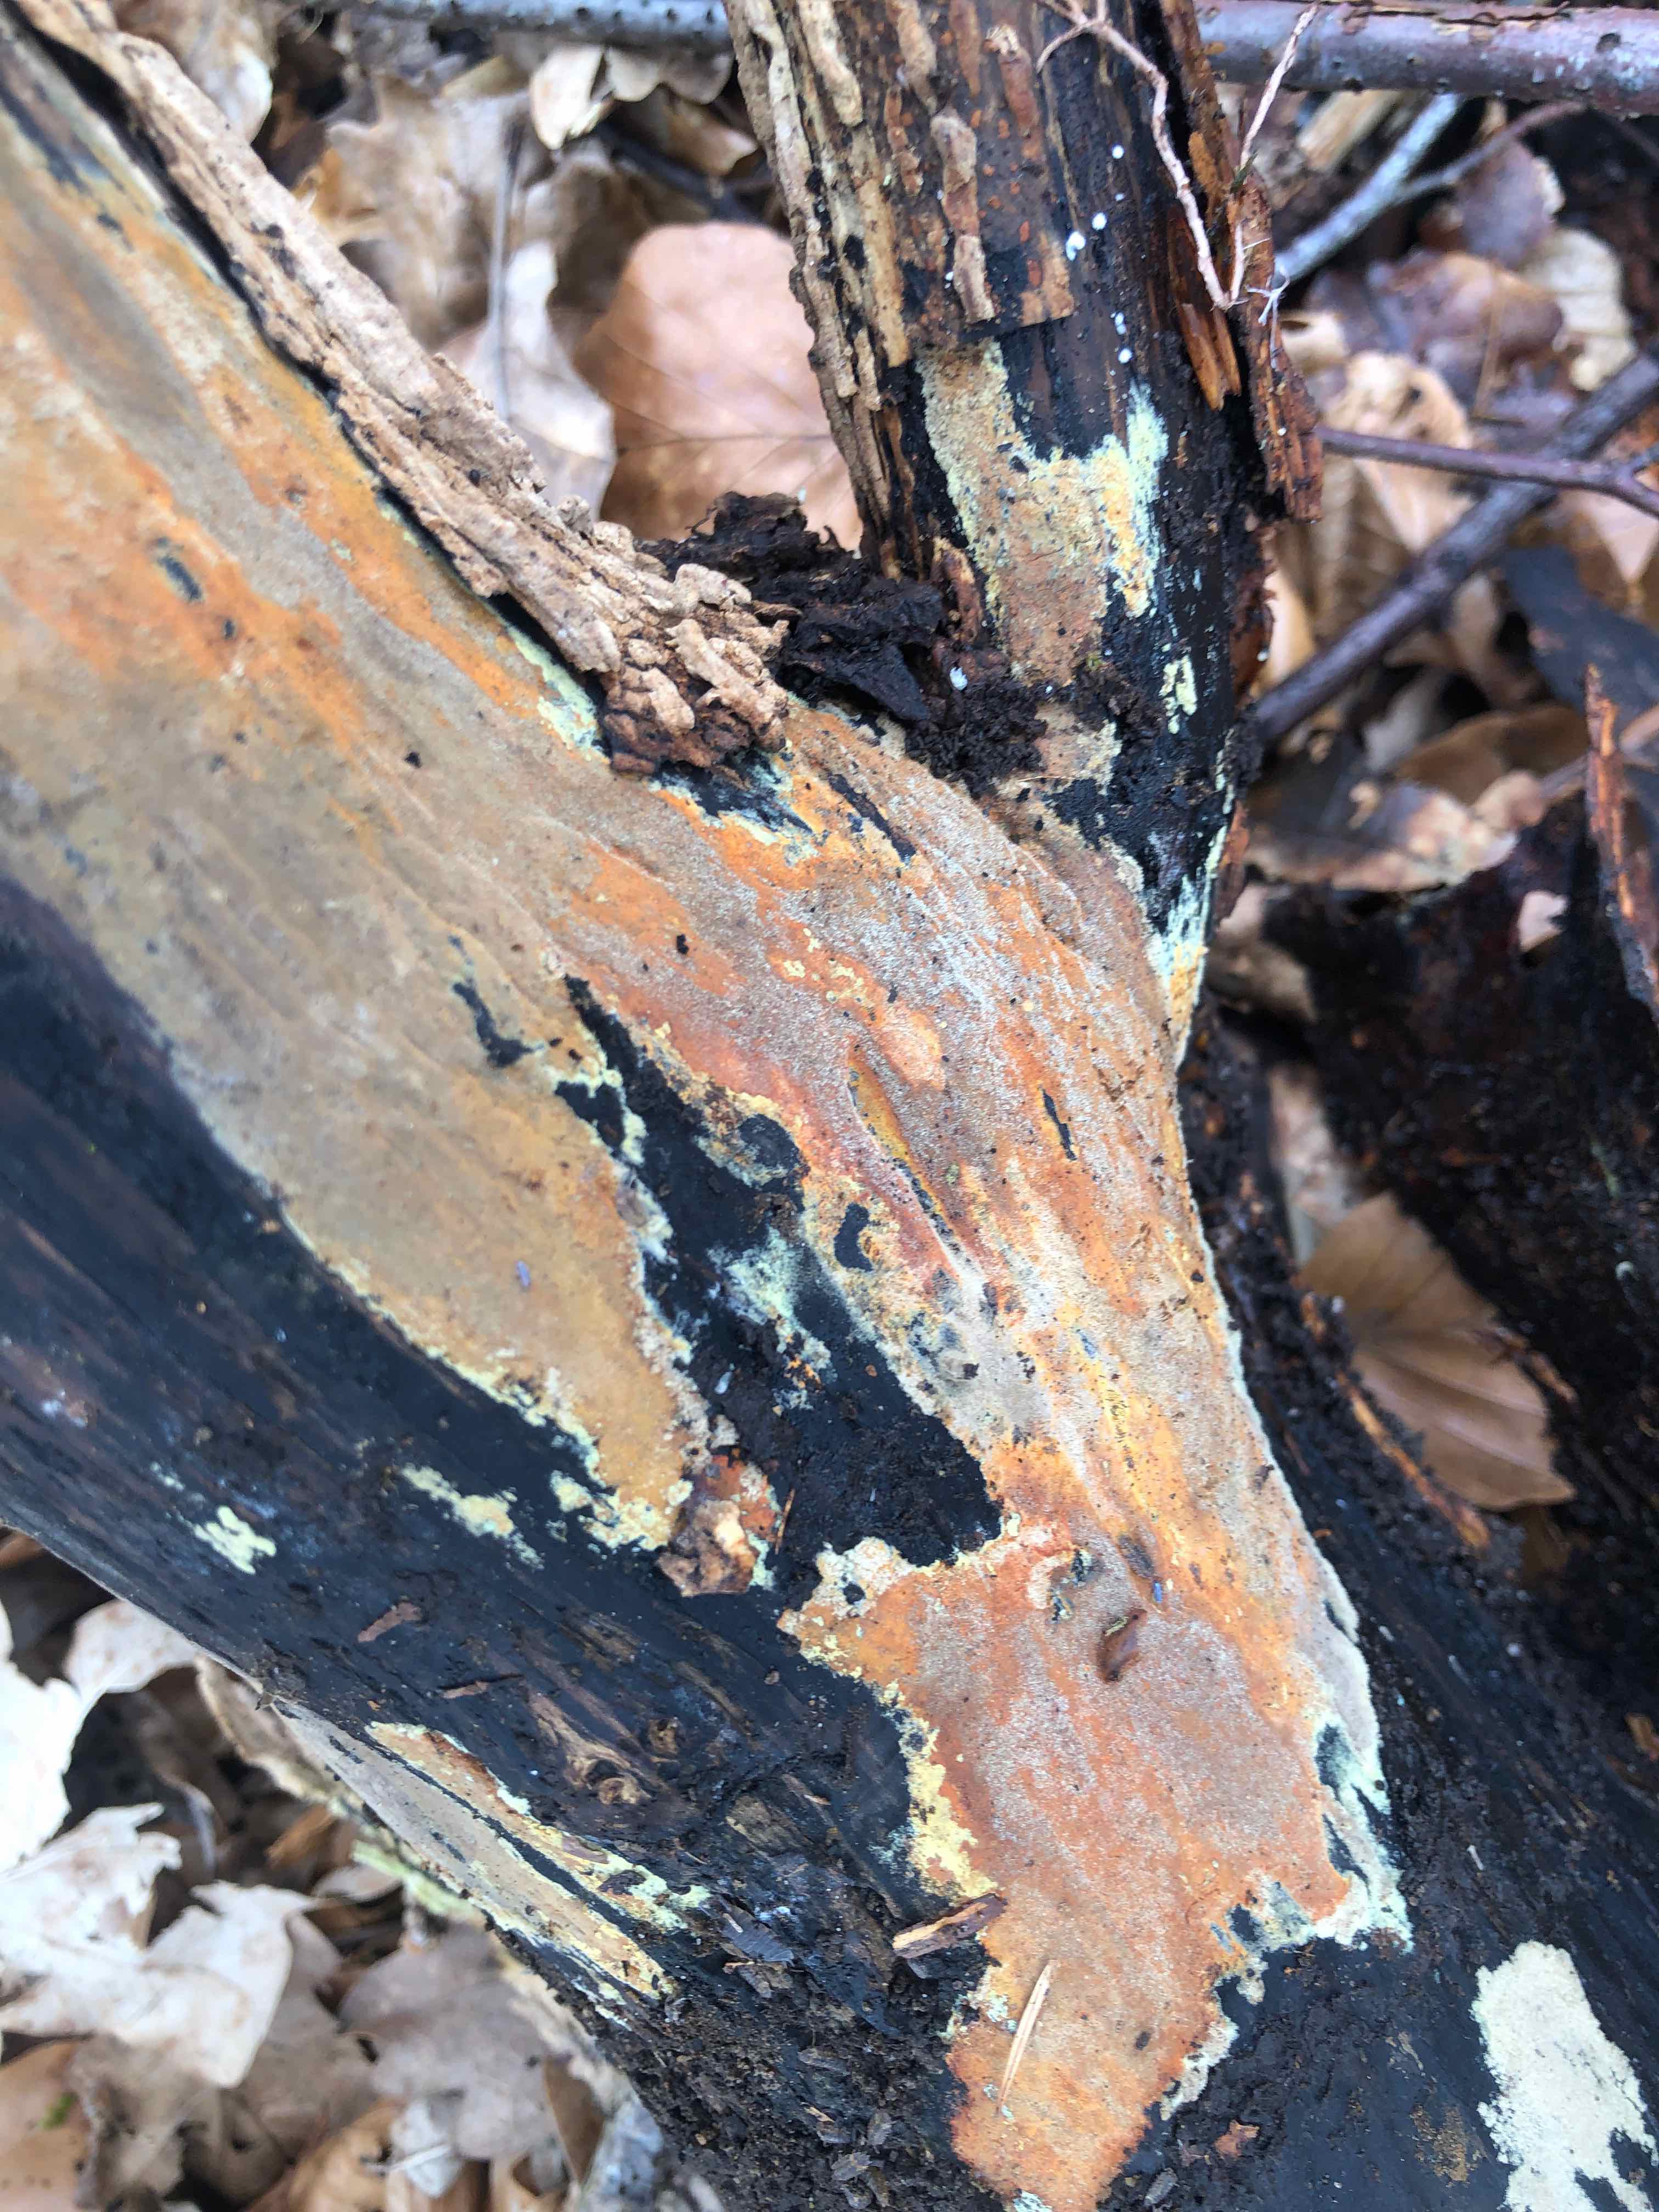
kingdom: Fungi
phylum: Ascomycota
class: Sordariomycetes
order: Xylariales
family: Hypoxylaceae
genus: Hypoxylon
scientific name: Hypoxylon rubiginosum
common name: rustfarvet kulbær
